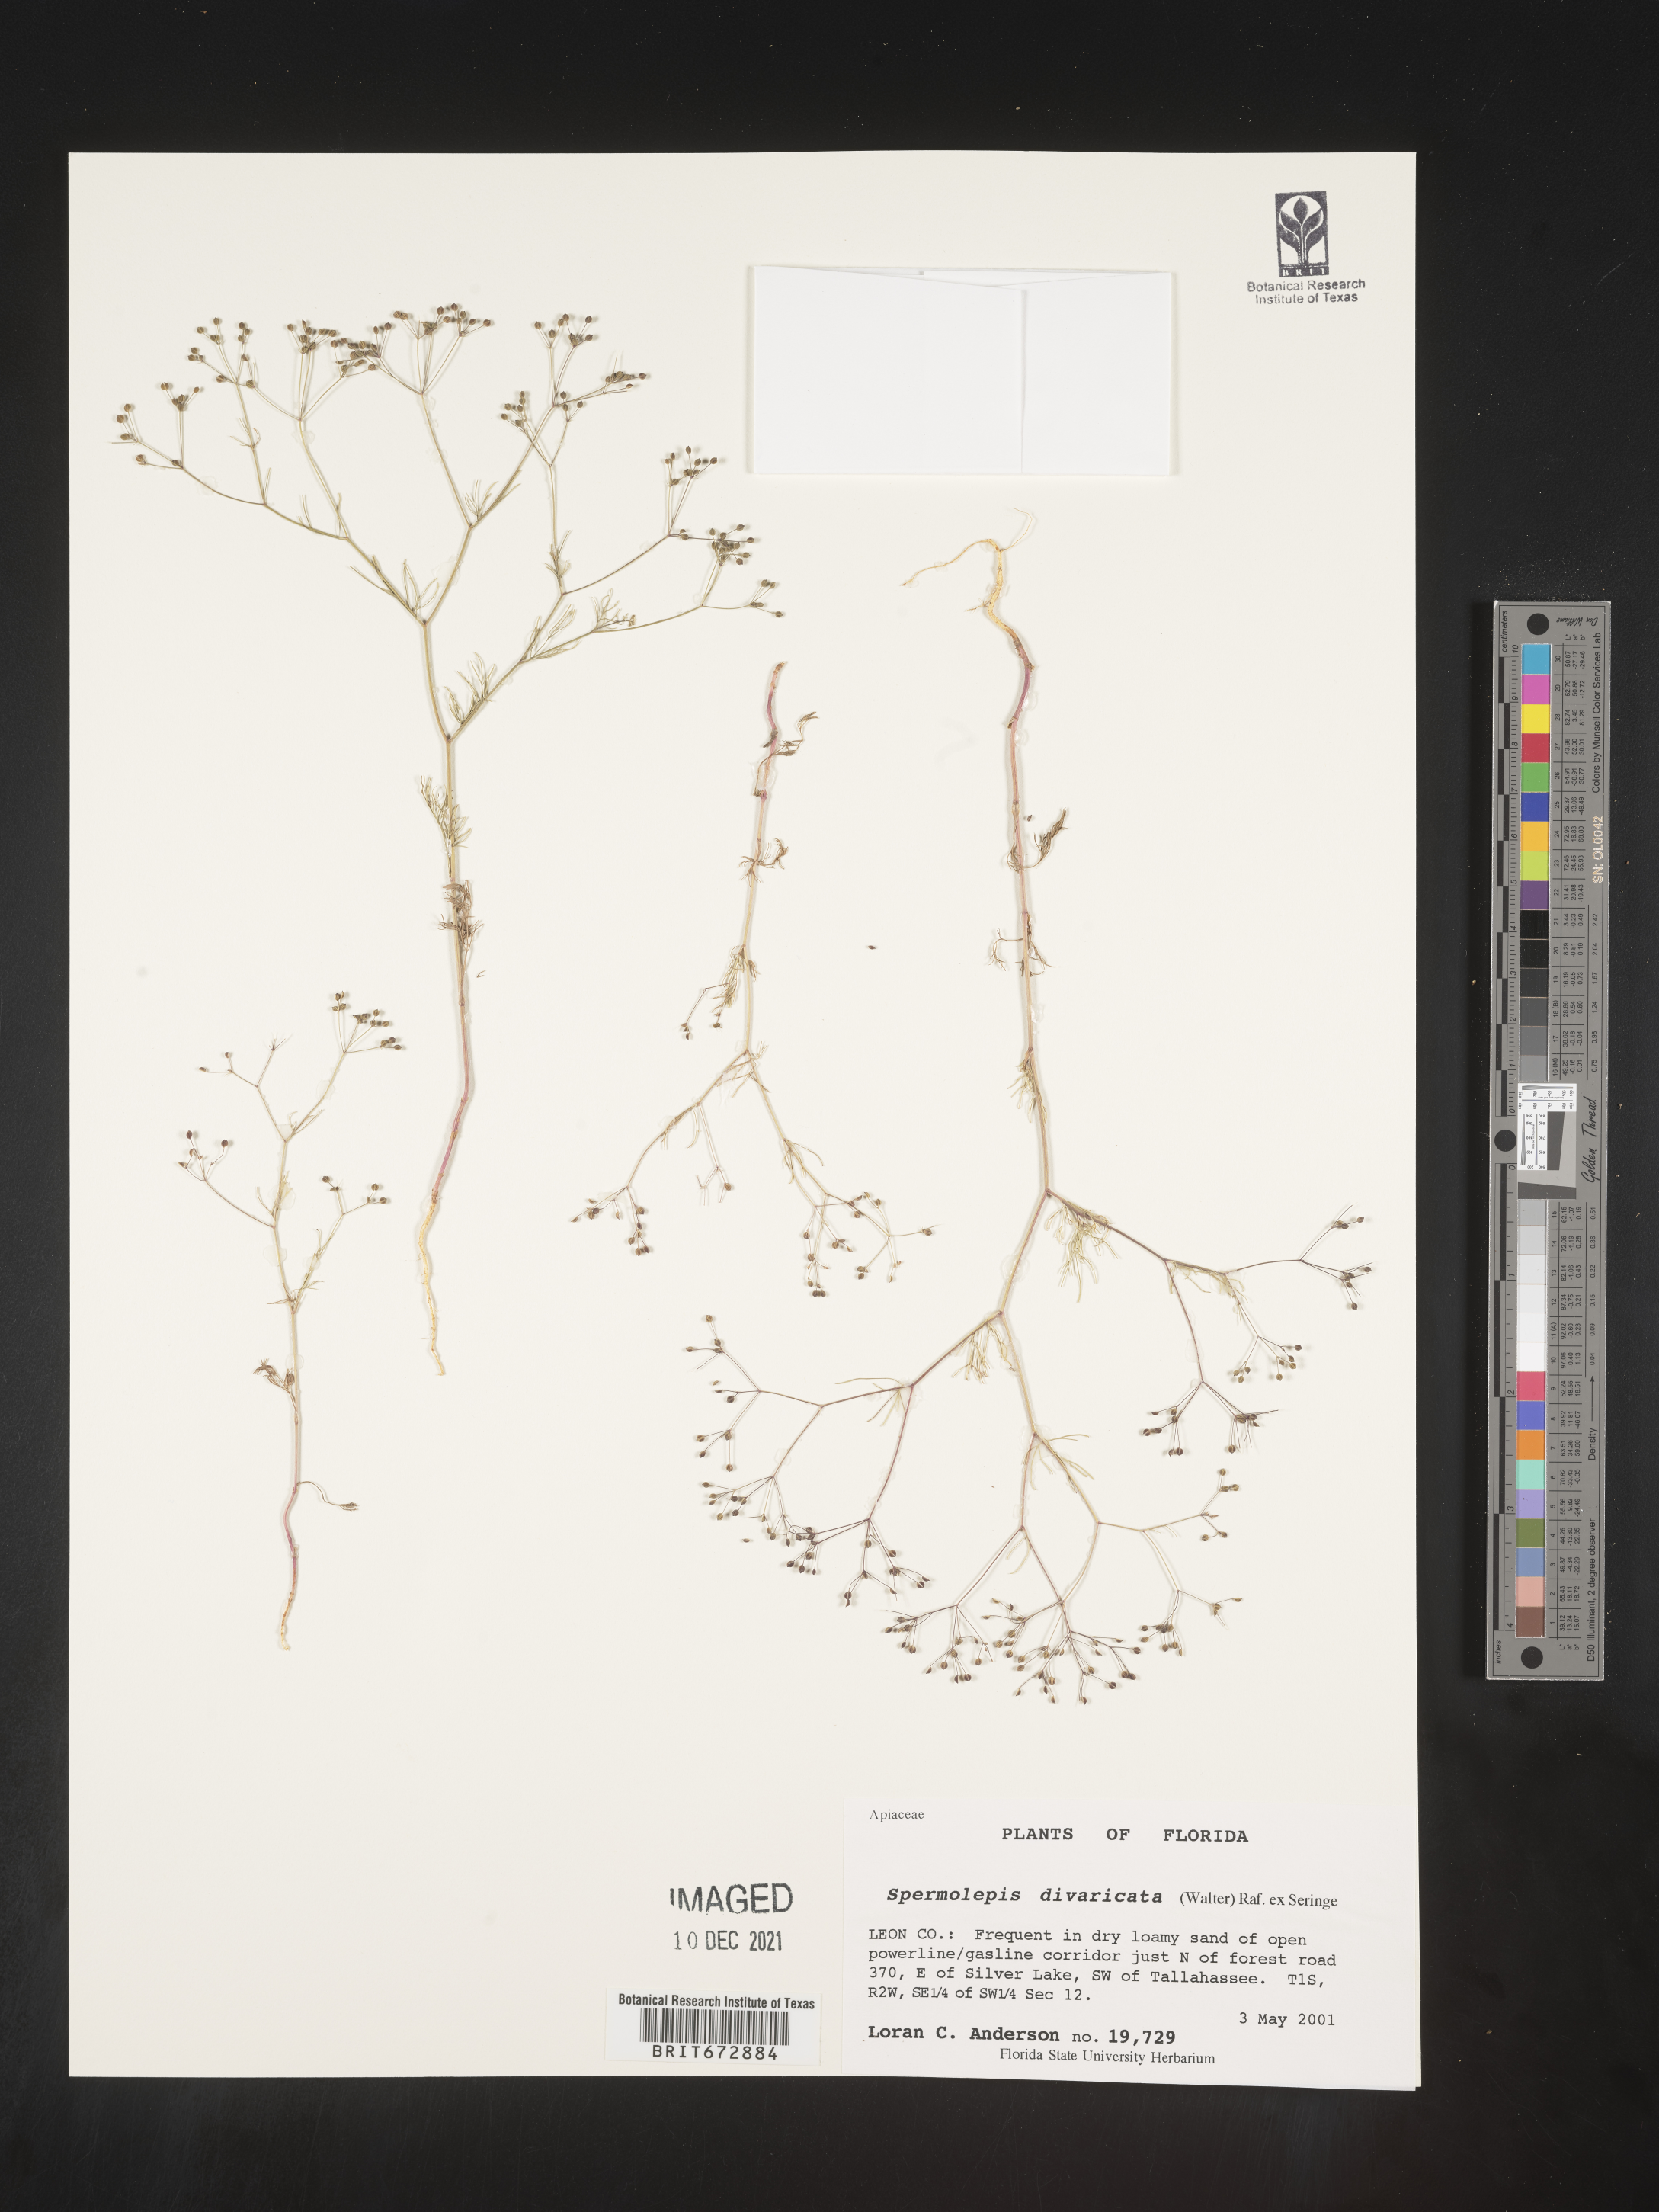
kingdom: Plantae
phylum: Tracheophyta
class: Magnoliopsida
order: Apiales
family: Apiaceae
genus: Spermolepis
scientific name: Spermolepis divaricata
